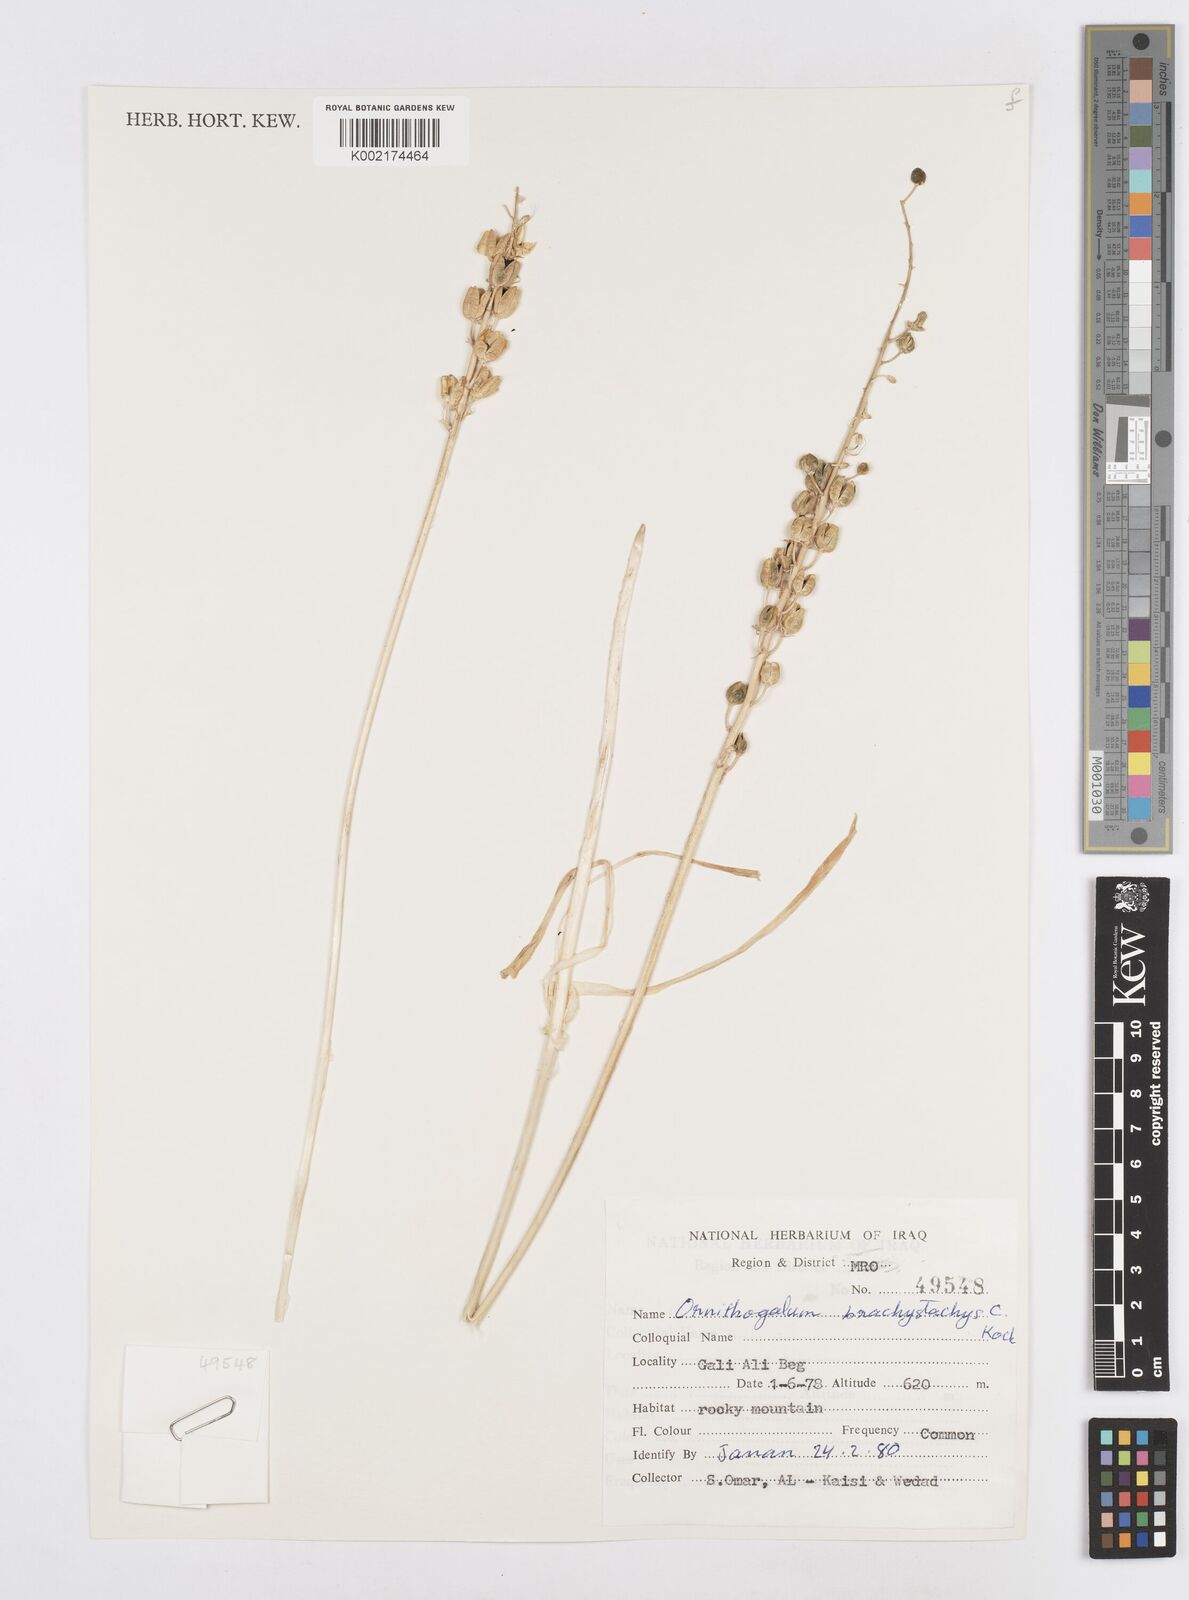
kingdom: Plantae
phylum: Tracheophyta
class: Liliopsida
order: Asparagales
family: Asparagaceae
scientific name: Asparagaceae
